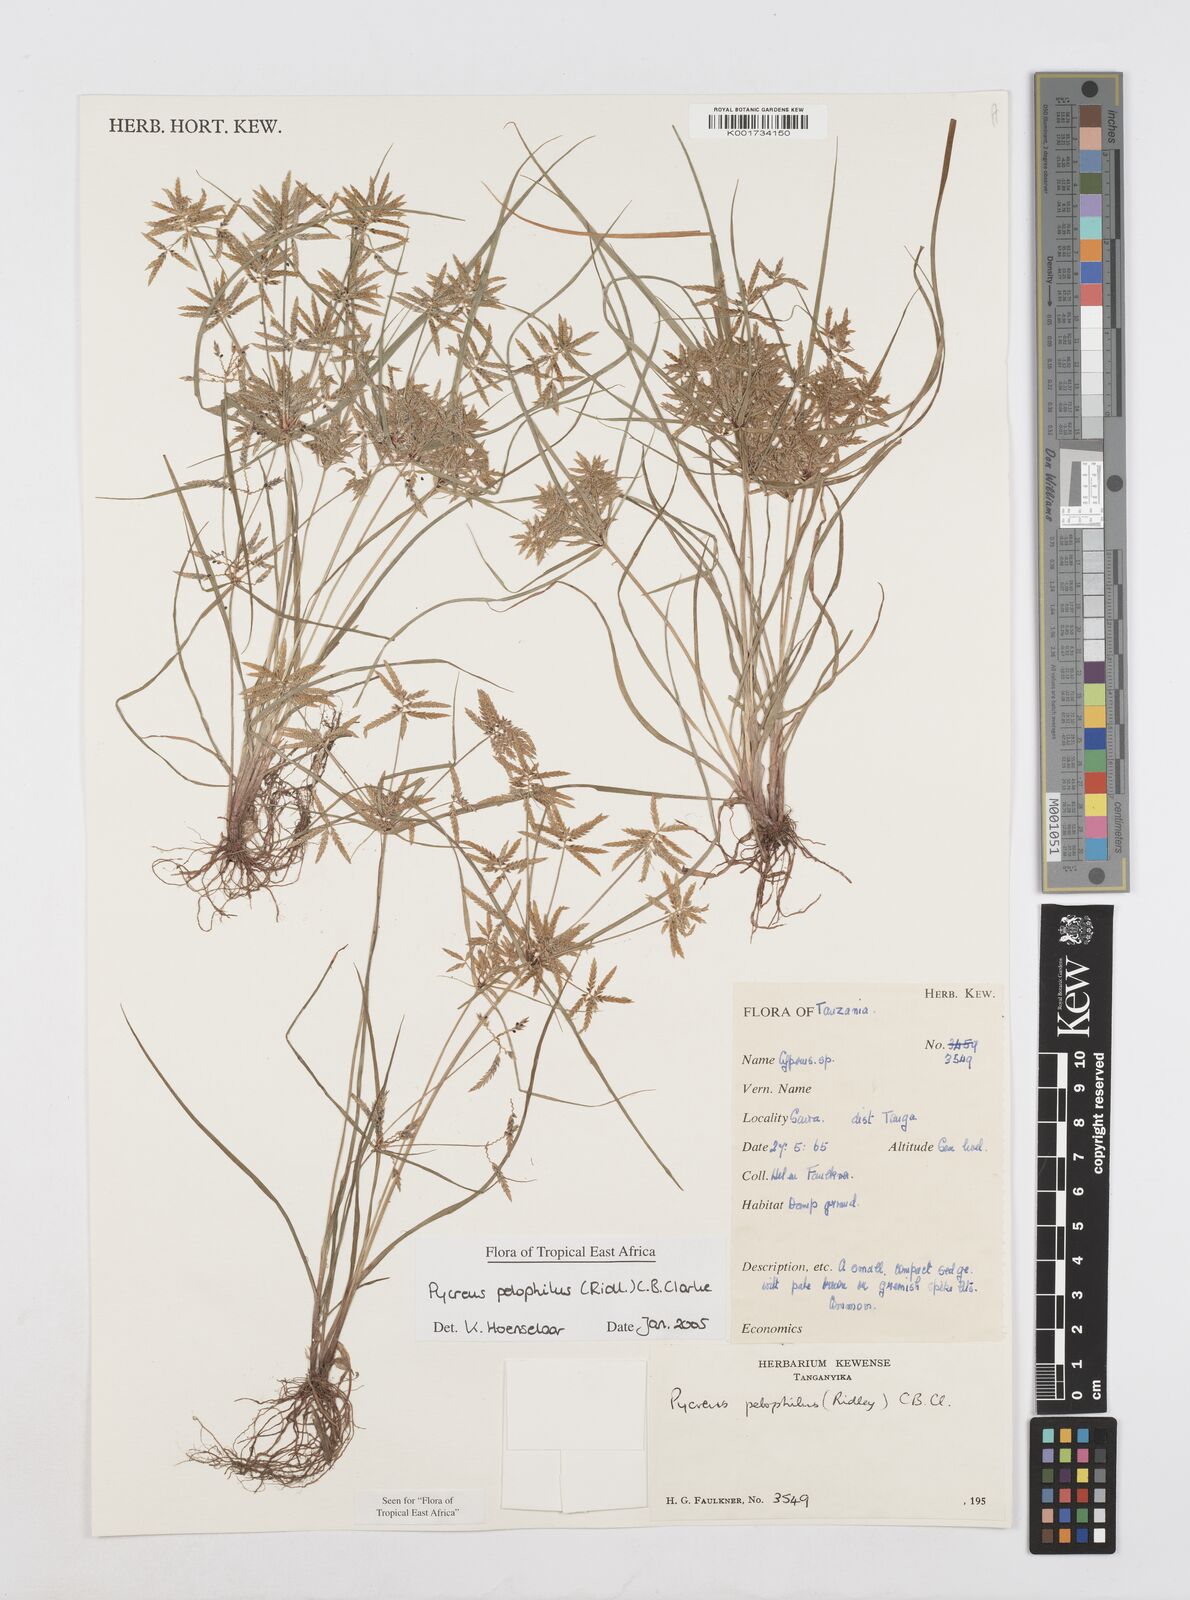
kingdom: Plantae
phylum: Tracheophyta
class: Liliopsida
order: Poales
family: Cyperaceae
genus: Cyperus
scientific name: Cyperus pelophilus
